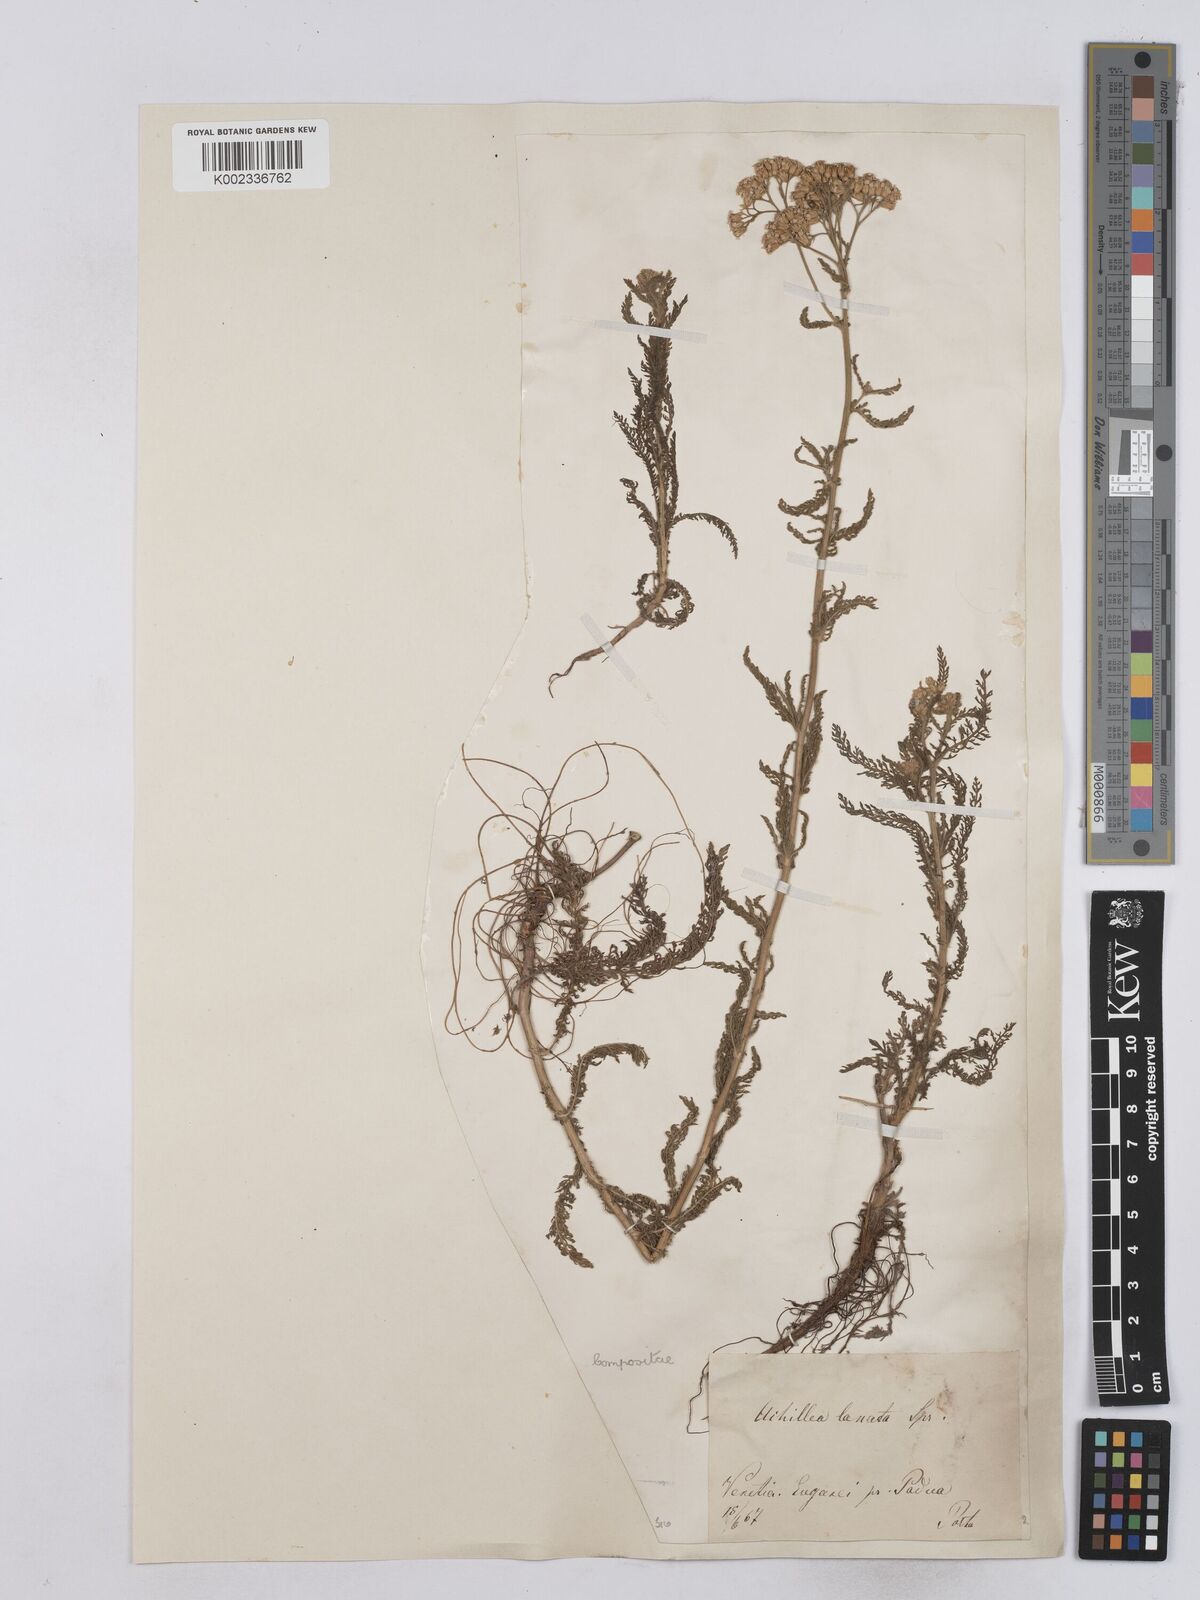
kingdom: Plantae
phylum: Tracheophyta
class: Magnoliopsida
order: Asterales
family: Asteraceae
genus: Achillea
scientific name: Achillea setacea
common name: Bristly yarrow
